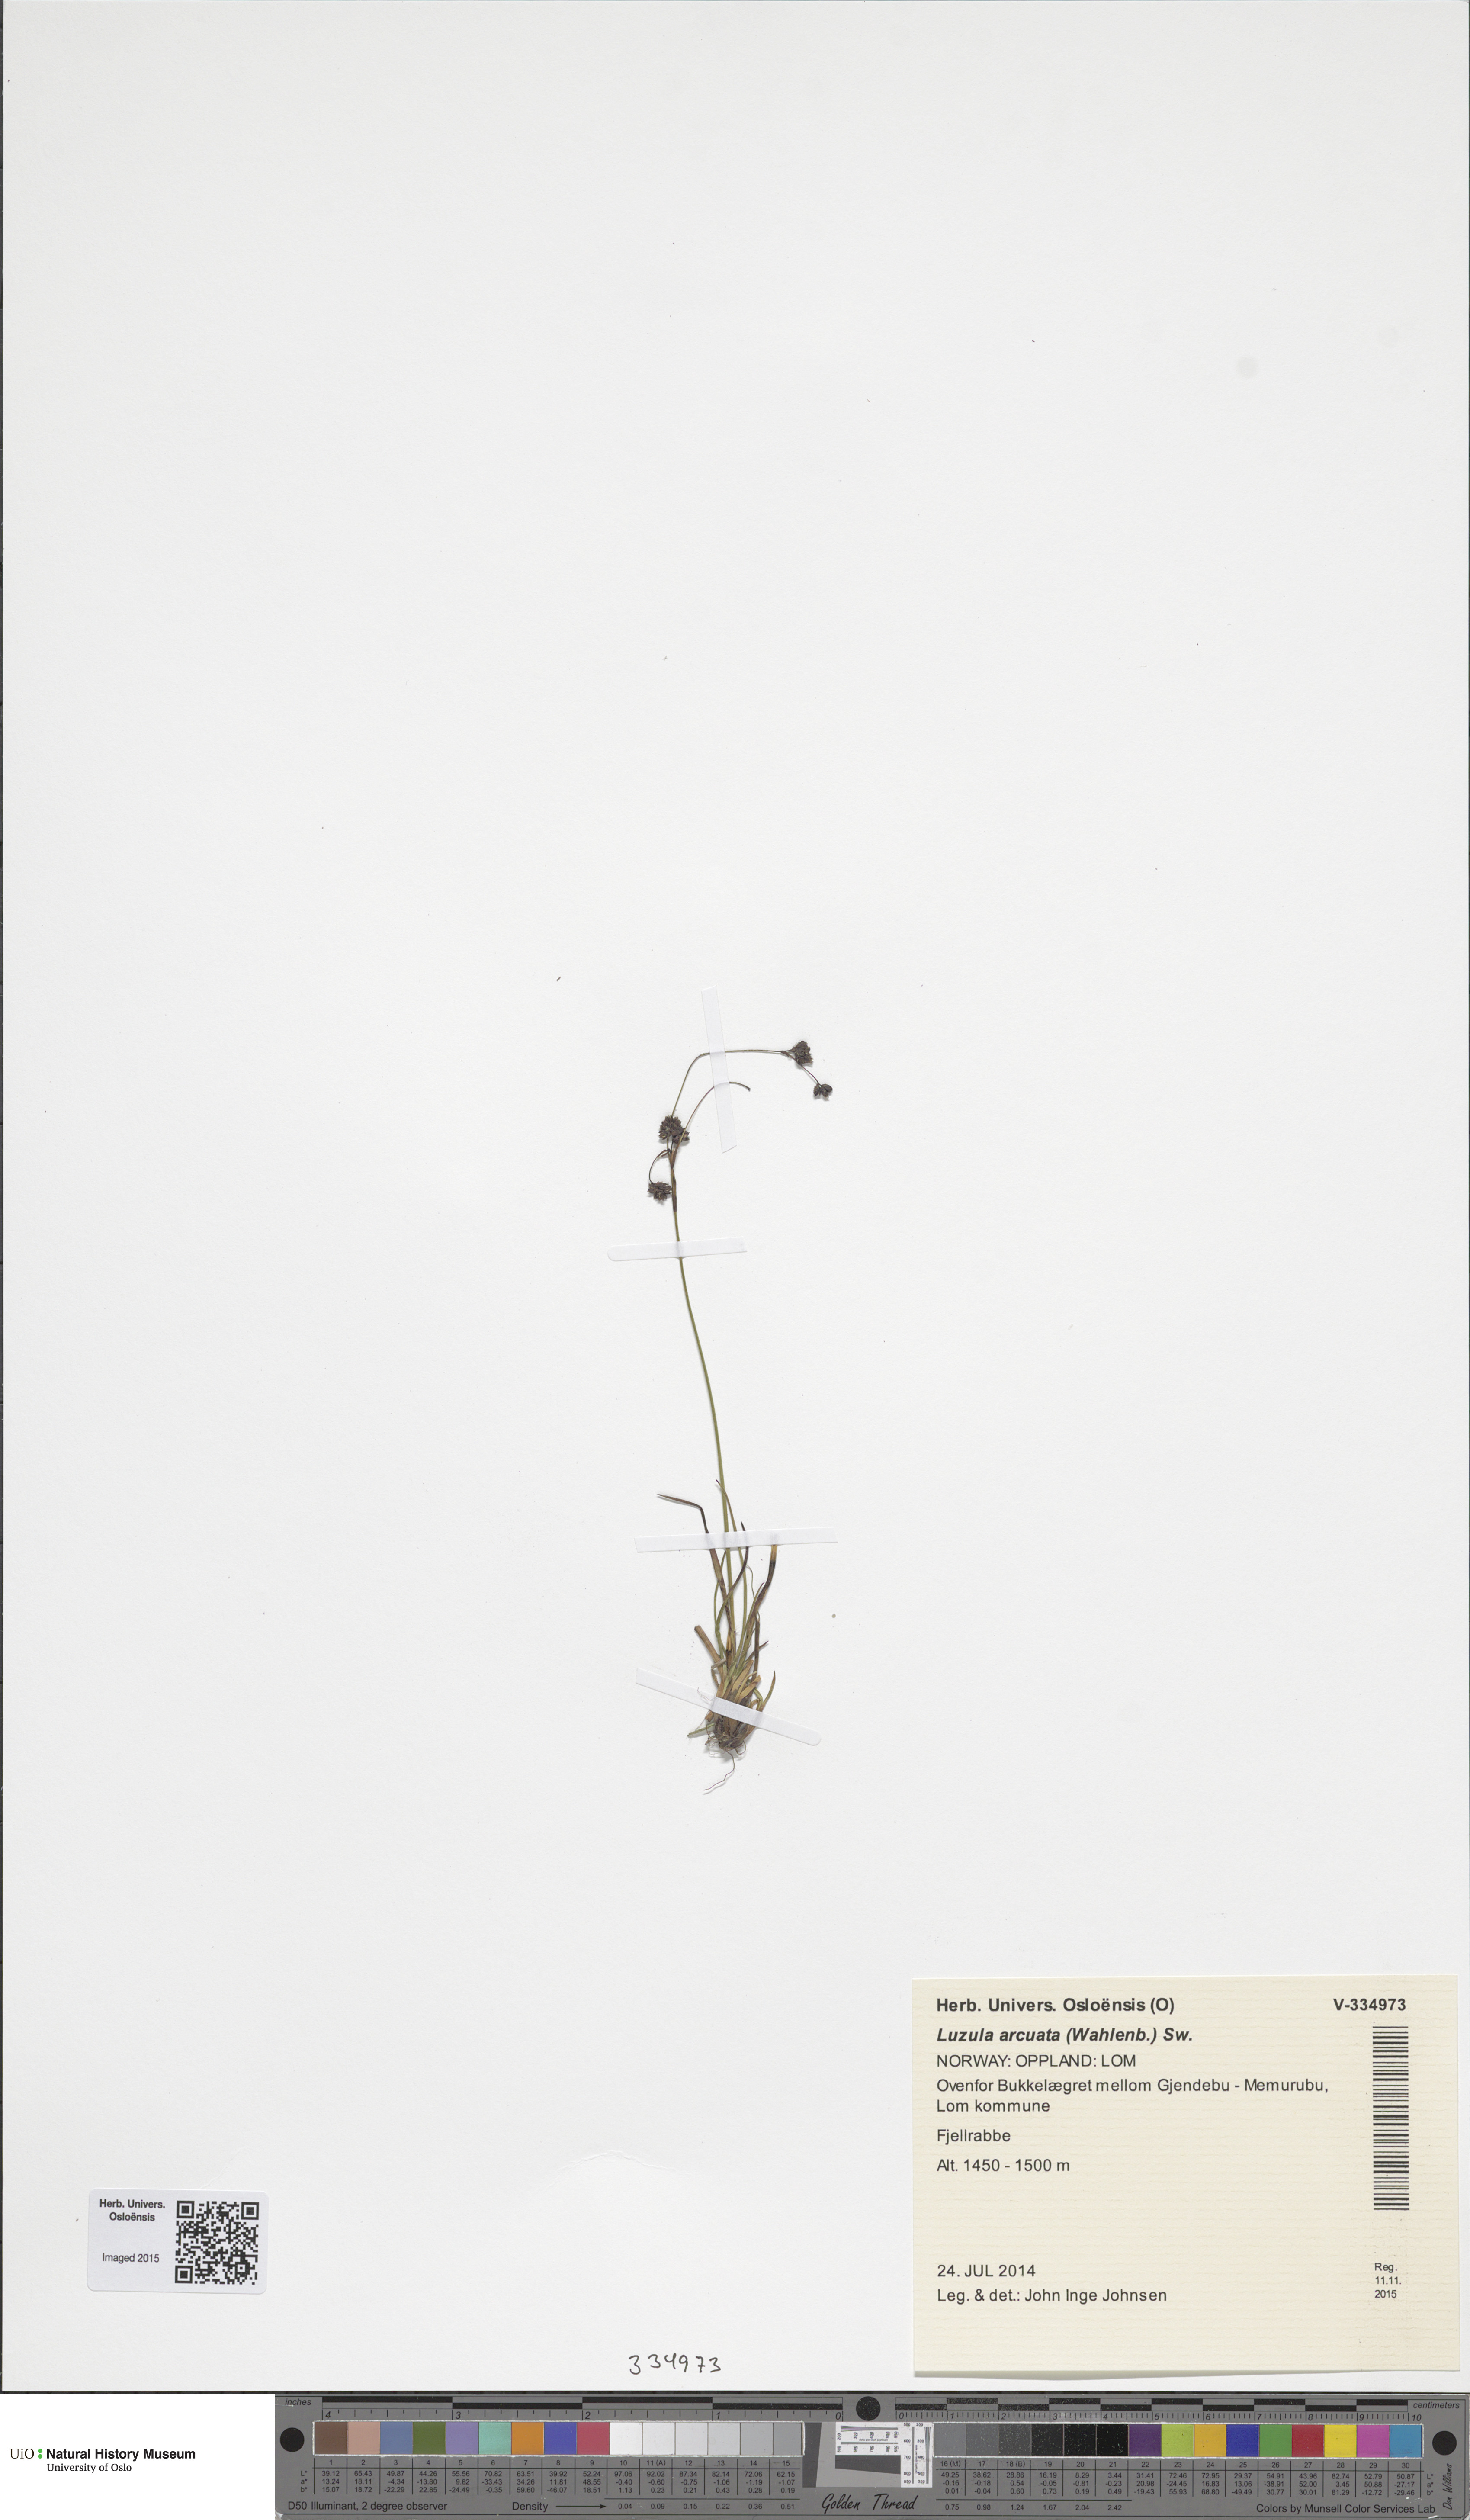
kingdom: Plantae
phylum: Tracheophyta
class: Liliopsida
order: Poales
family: Juncaceae
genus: Luzula
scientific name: Luzula arcuata
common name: Curved wood-rush
